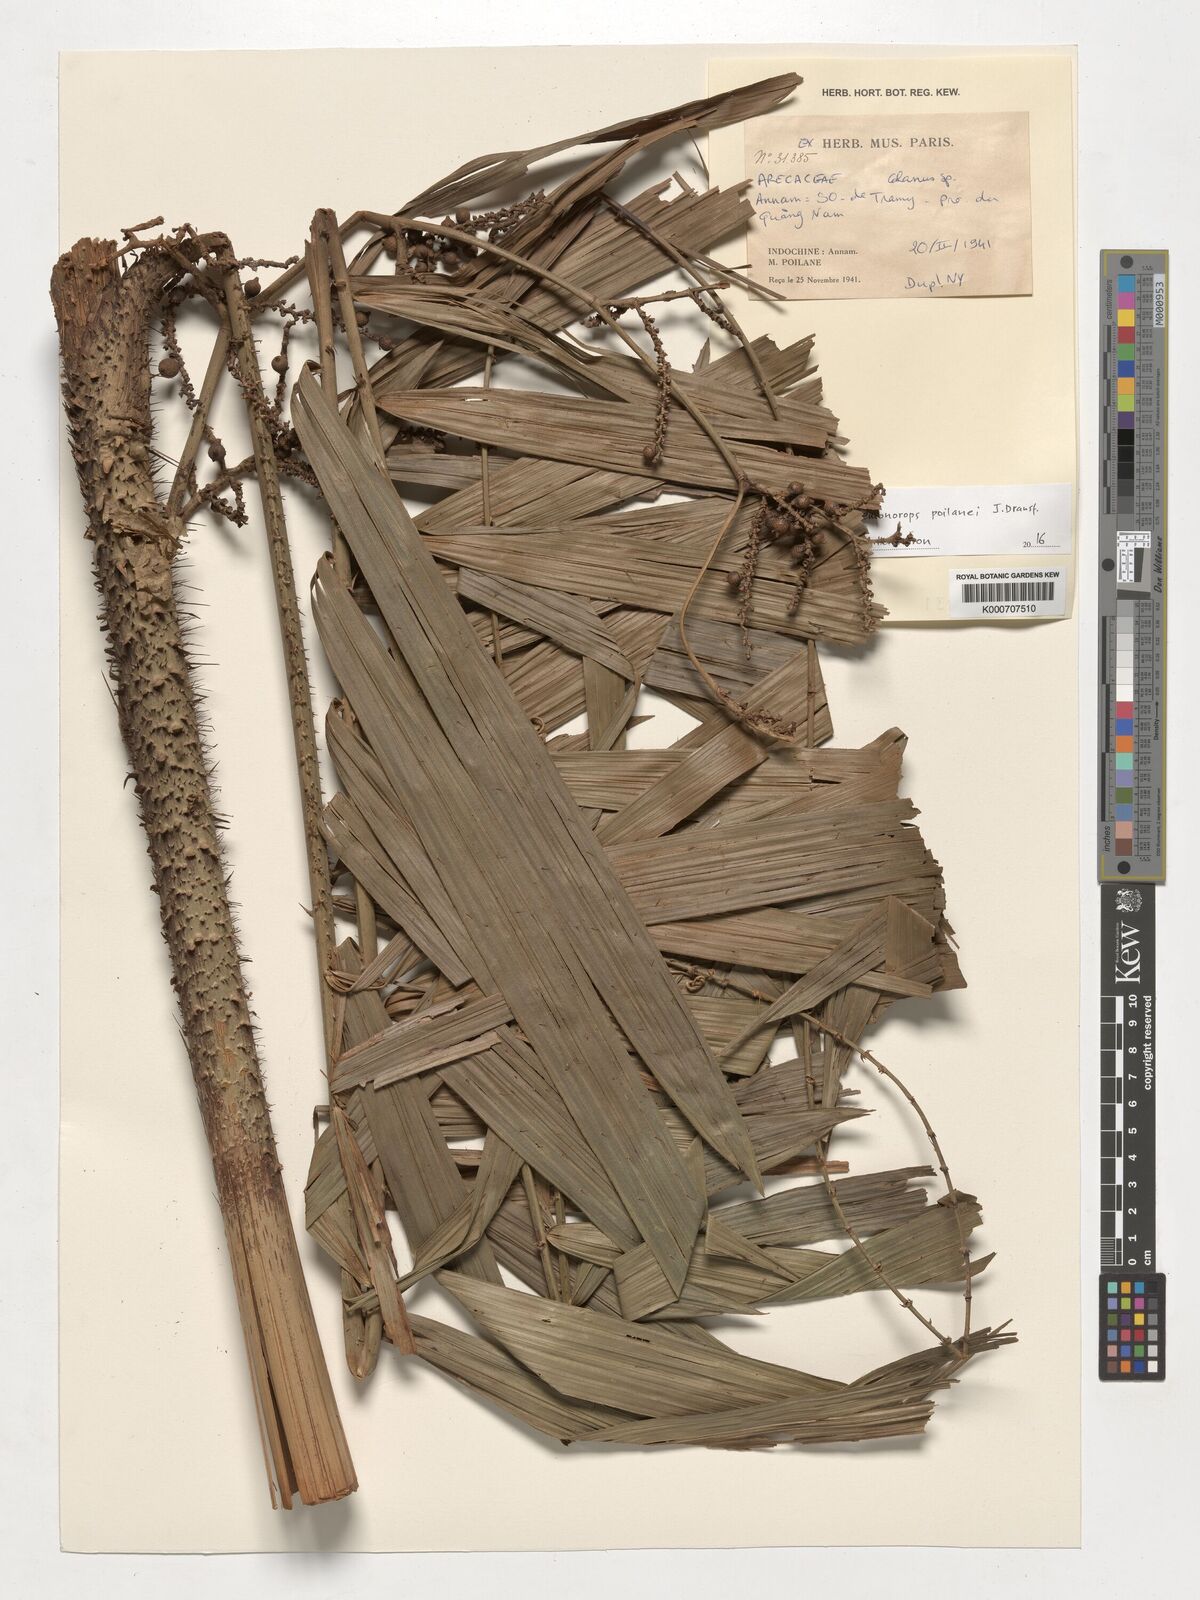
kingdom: Plantae
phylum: Tracheophyta
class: Liliopsida
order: Arecales
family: Arecaceae
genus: Calamus
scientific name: Calamus eugenei
